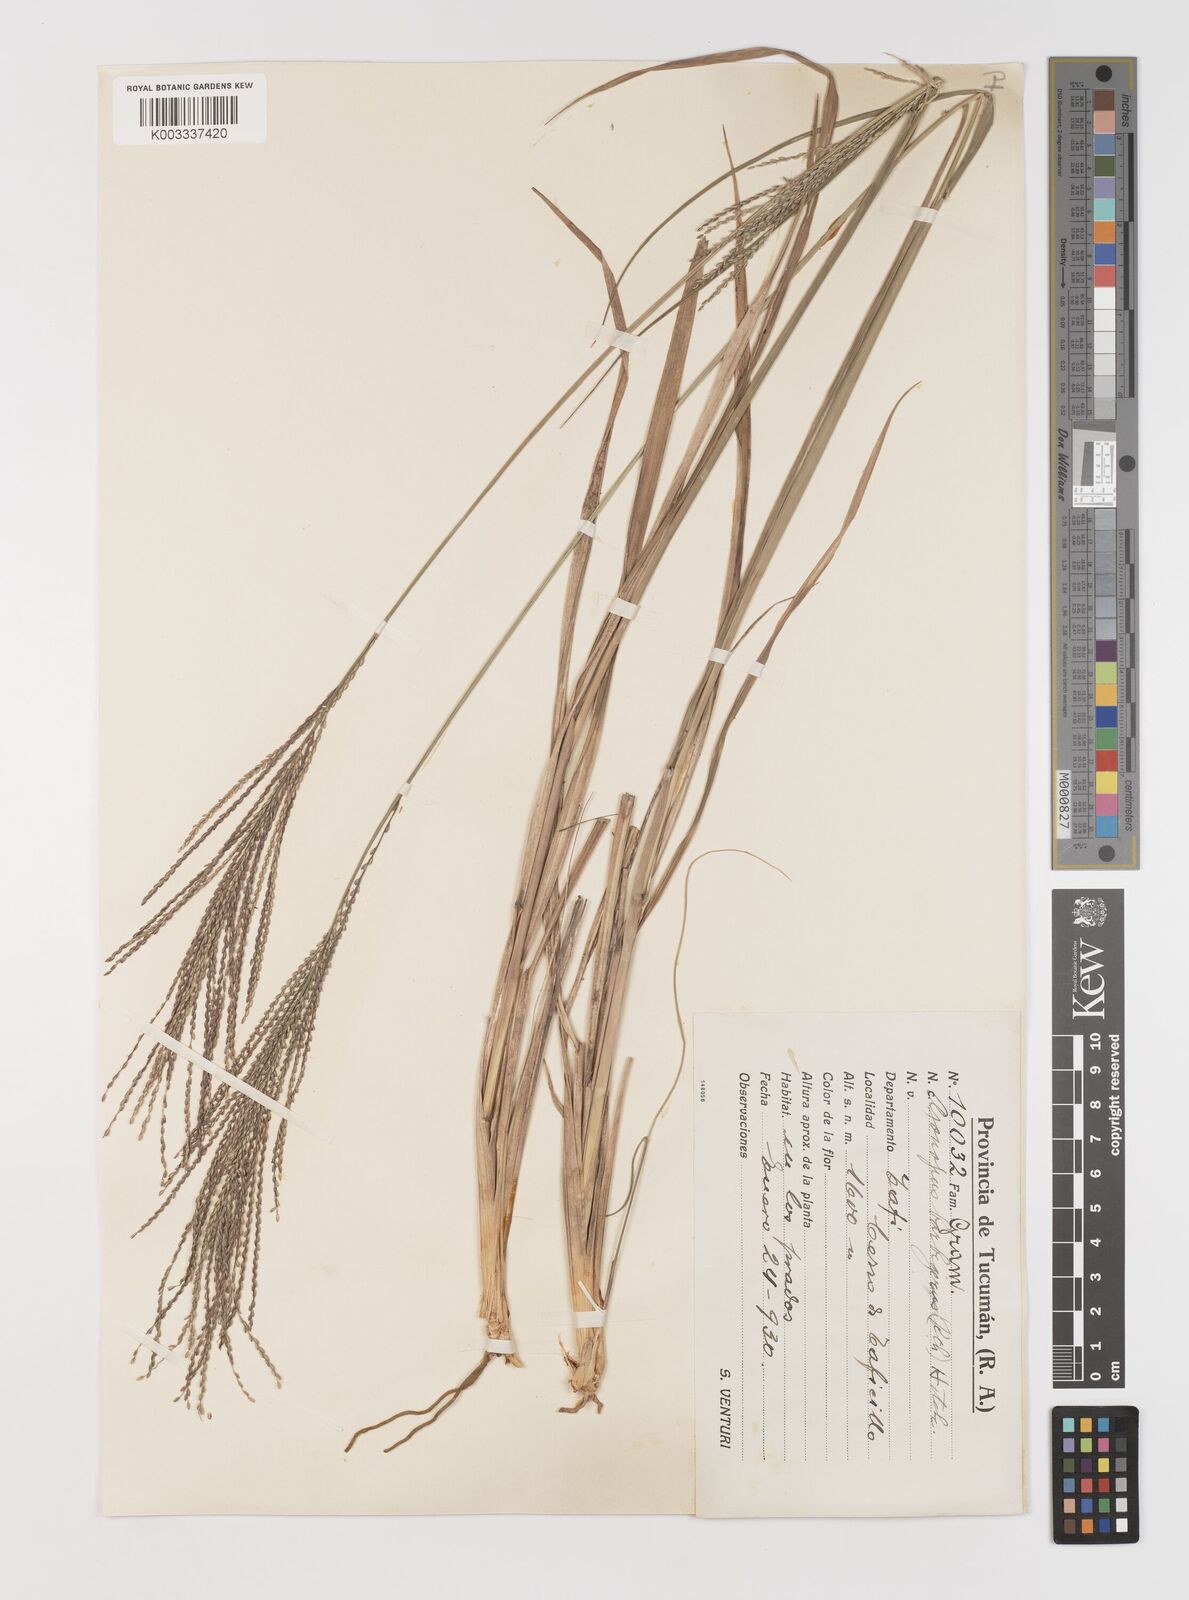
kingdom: Plantae
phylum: Tracheophyta
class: Liliopsida
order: Poales
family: Poaceae
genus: Axonopus
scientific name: Axonopus siccus
